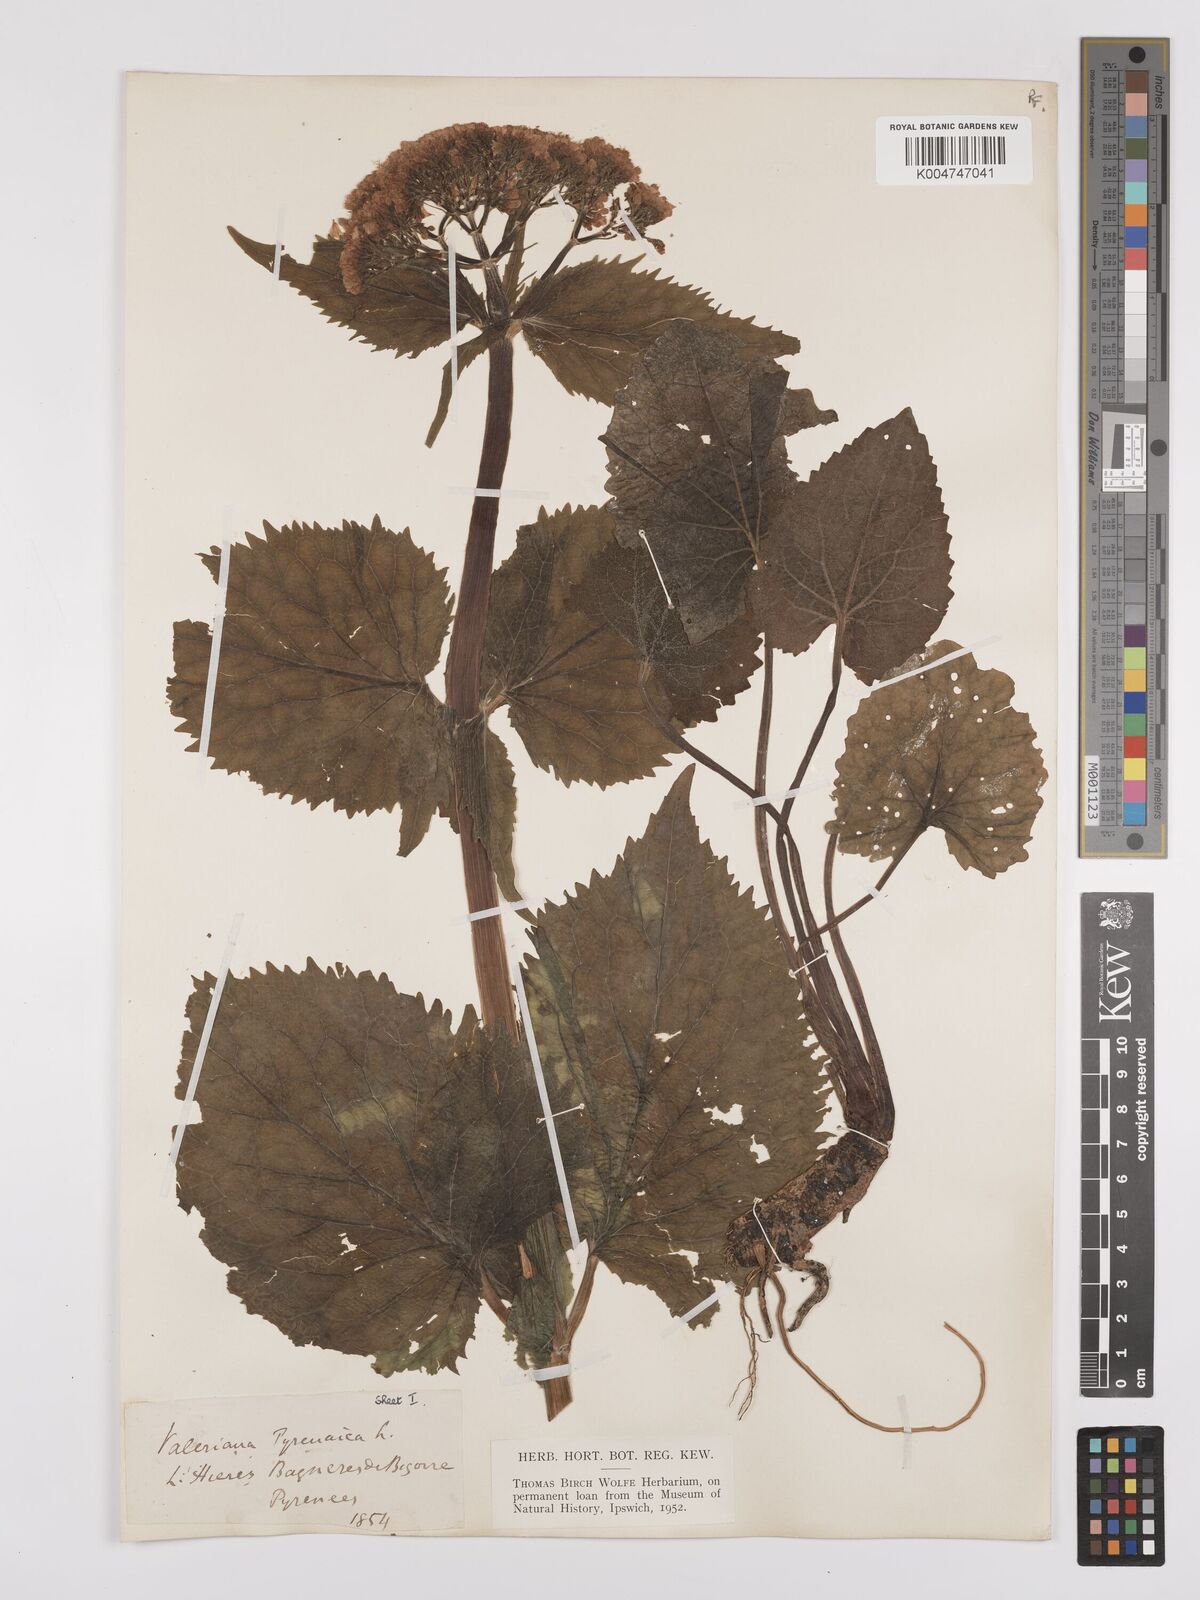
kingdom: Plantae
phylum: Tracheophyta
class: Magnoliopsida
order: Dipsacales
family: Caprifoliaceae
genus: Valeriana
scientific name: Valeriana pyrenaica
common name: Pyrenean valerian
